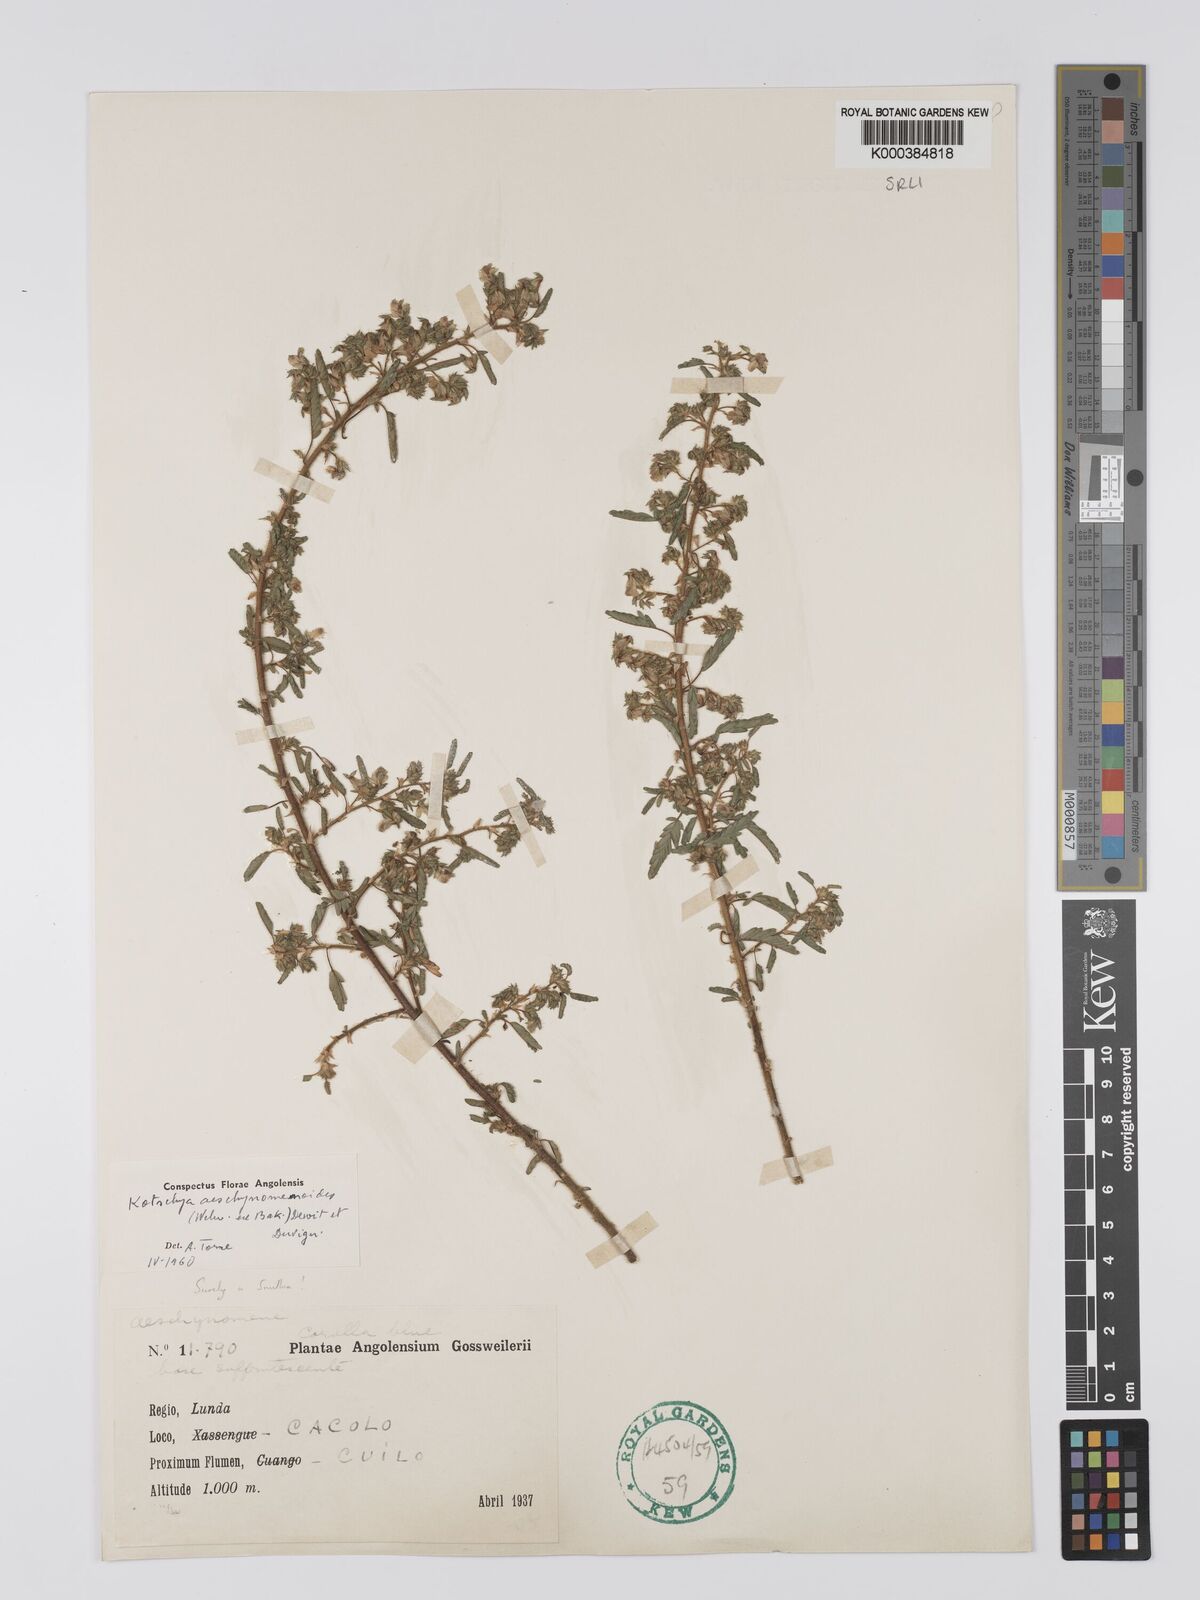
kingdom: Plantae
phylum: Tracheophyta
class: Magnoliopsida
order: Fabales
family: Fabaceae
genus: Kotschya
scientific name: Kotschya aeschynomenoides
